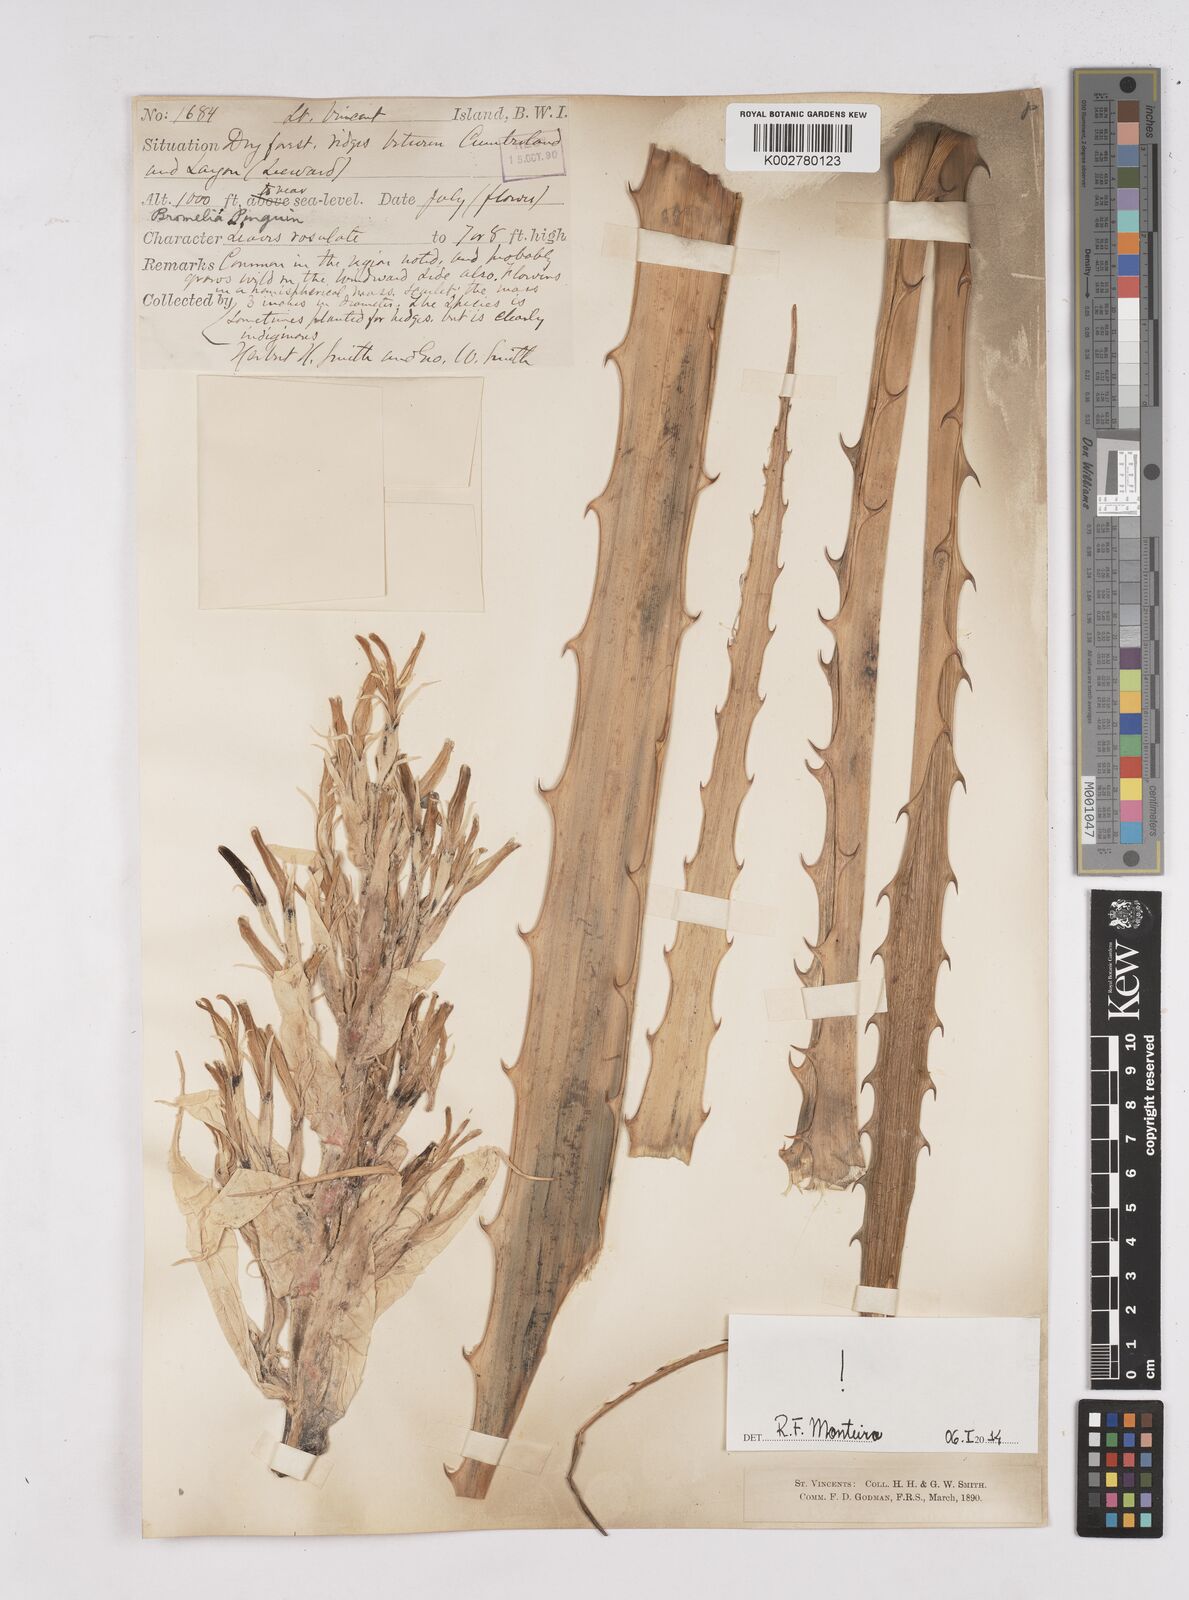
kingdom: Plantae
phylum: Tracheophyta
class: Liliopsida
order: Poales
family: Bromeliaceae
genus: Bromelia
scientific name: Bromelia pinguin
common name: Pinguin
